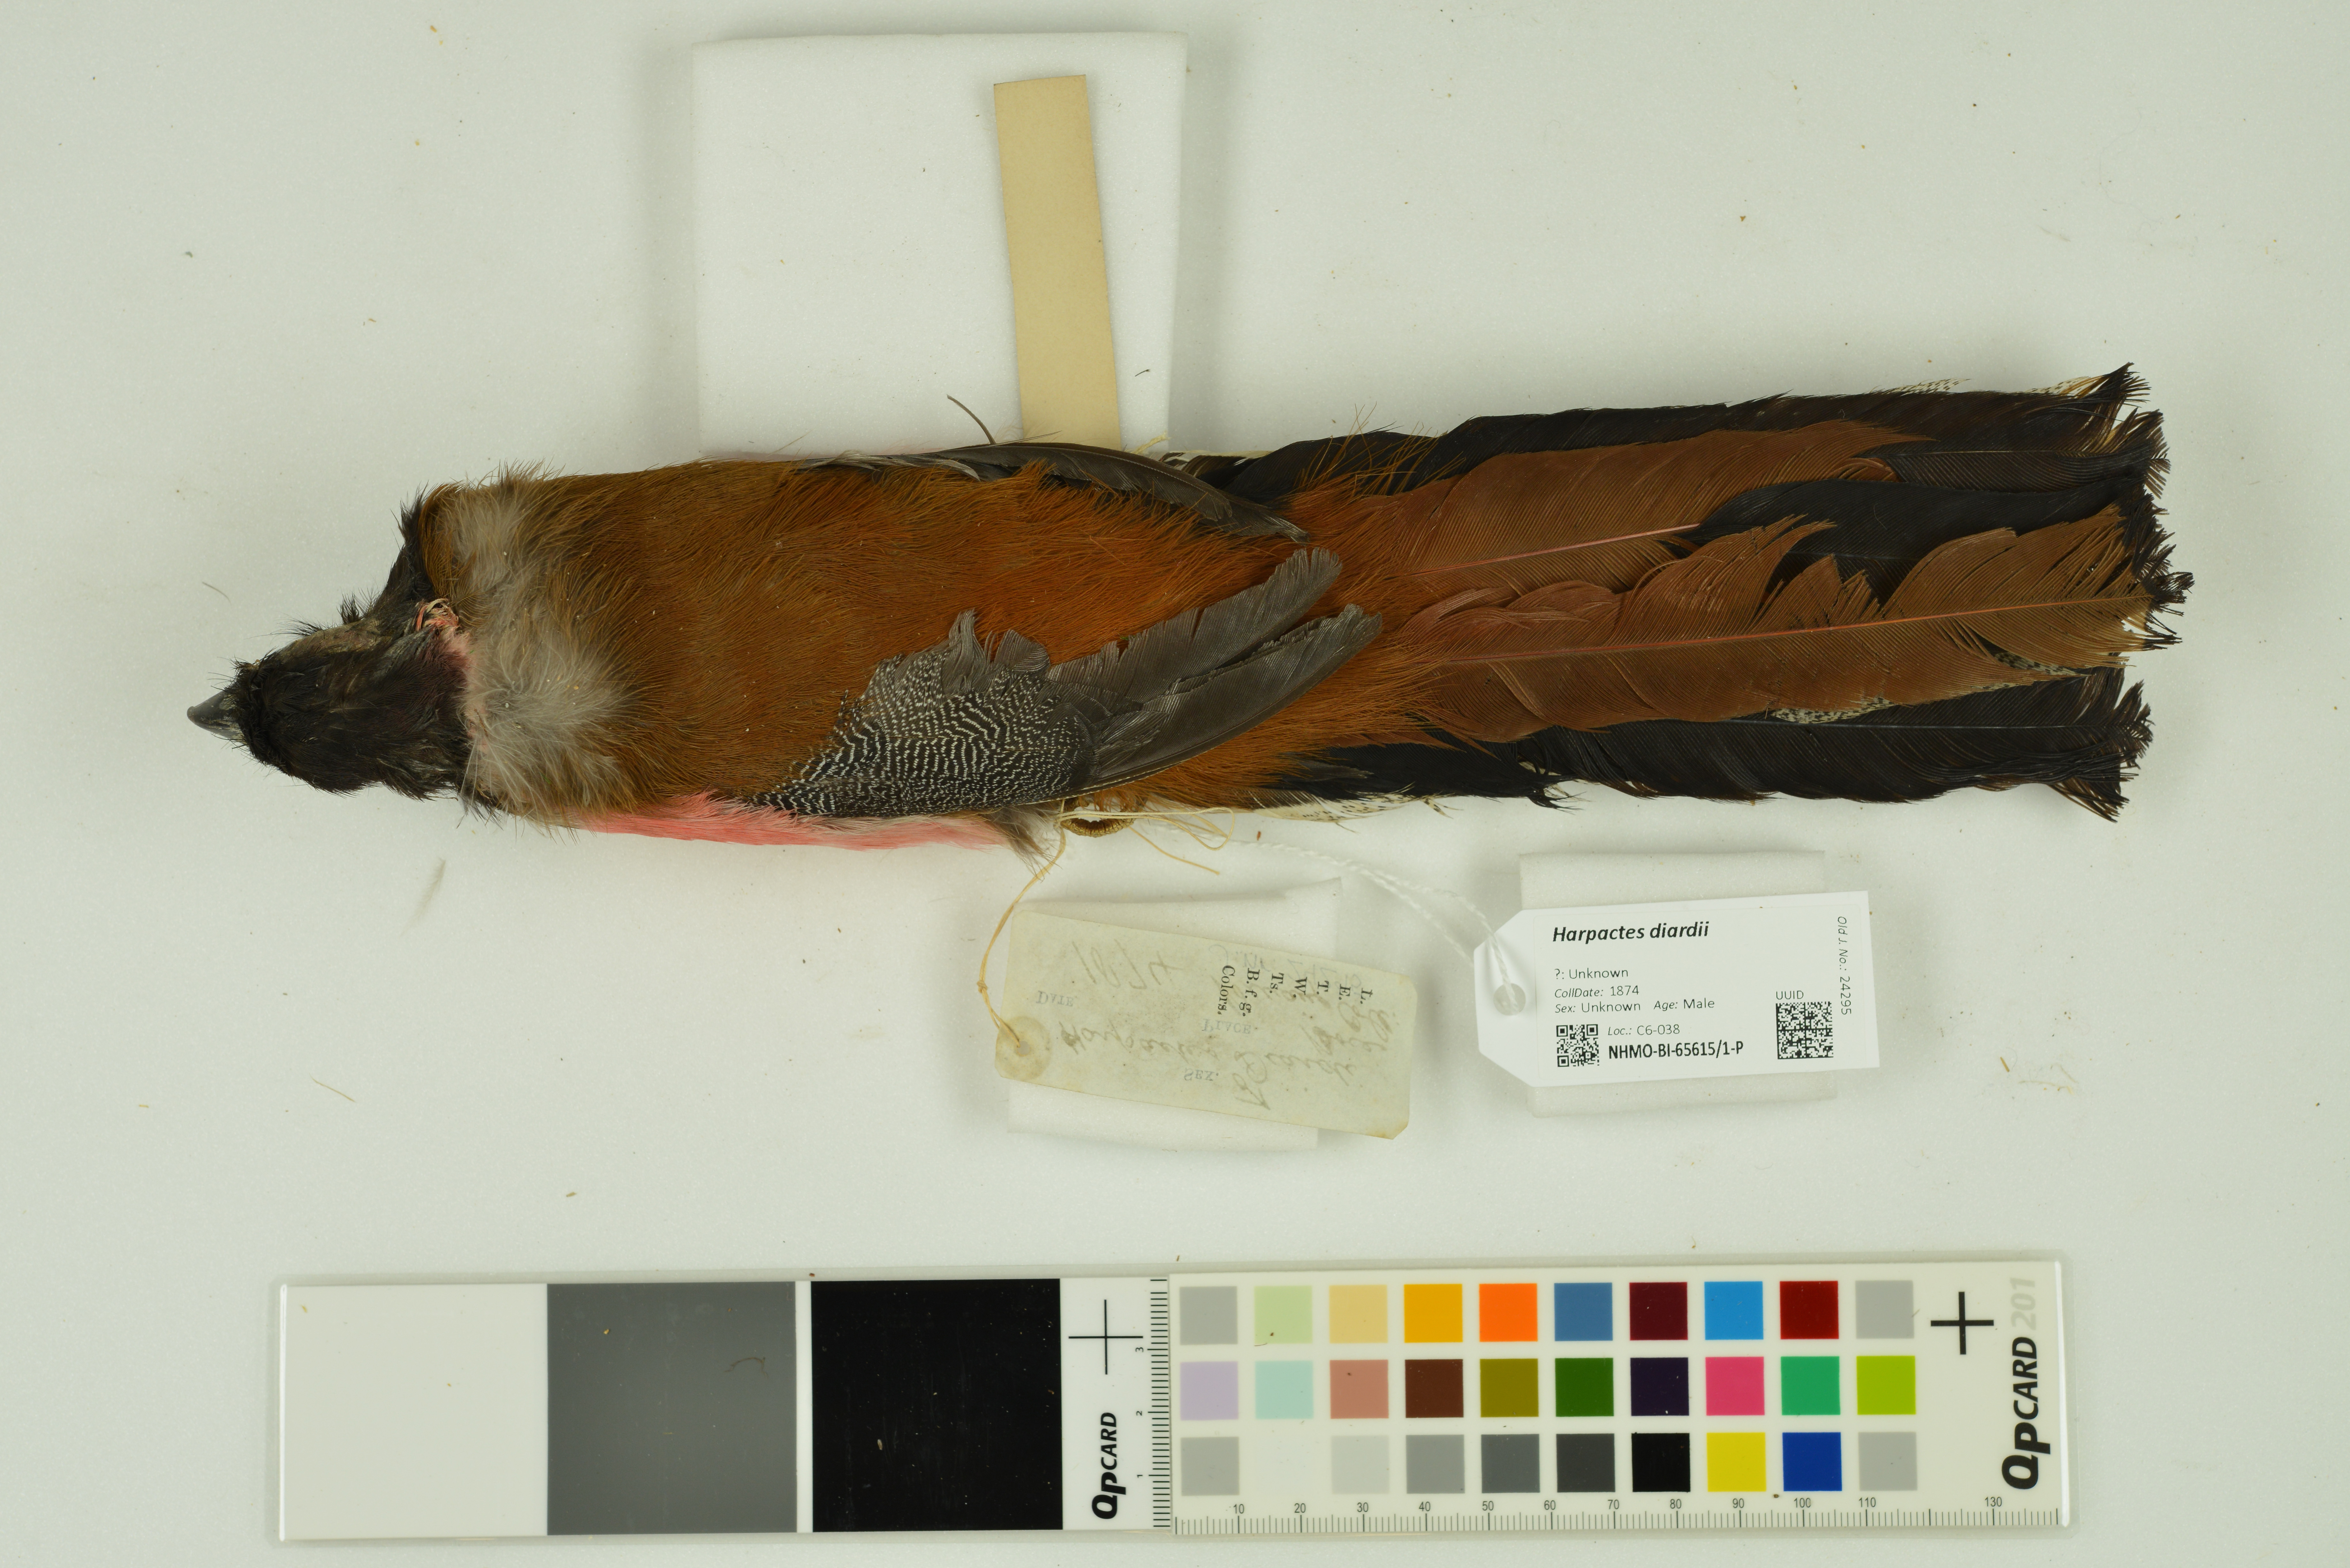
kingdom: Animalia
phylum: Chordata
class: Aves
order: Trogoniformes
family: Trogonidae
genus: Harpactes
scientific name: Harpactes diardii
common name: Diard's trogon
